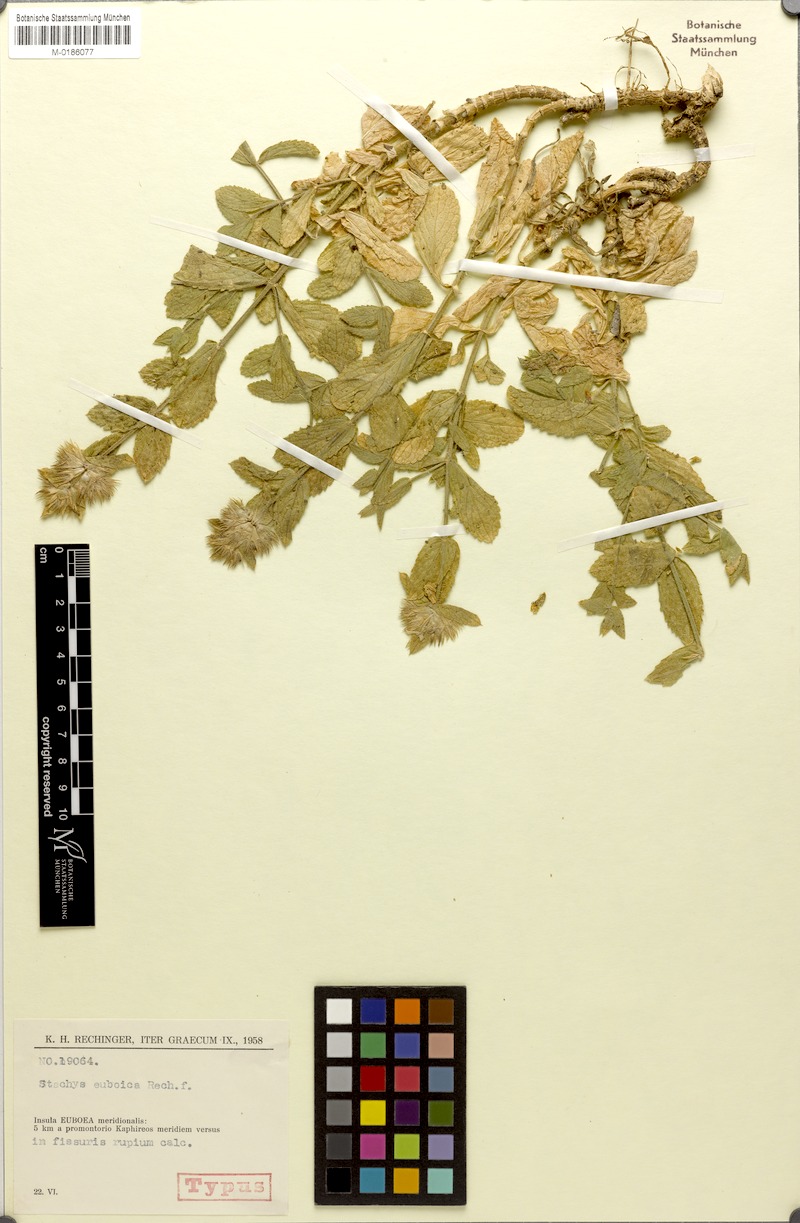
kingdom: Plantae
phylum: Tracheophyta
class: Magnoliopsida
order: Lamiales
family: Lamiaceae
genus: Stachys
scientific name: Stachys euboica
